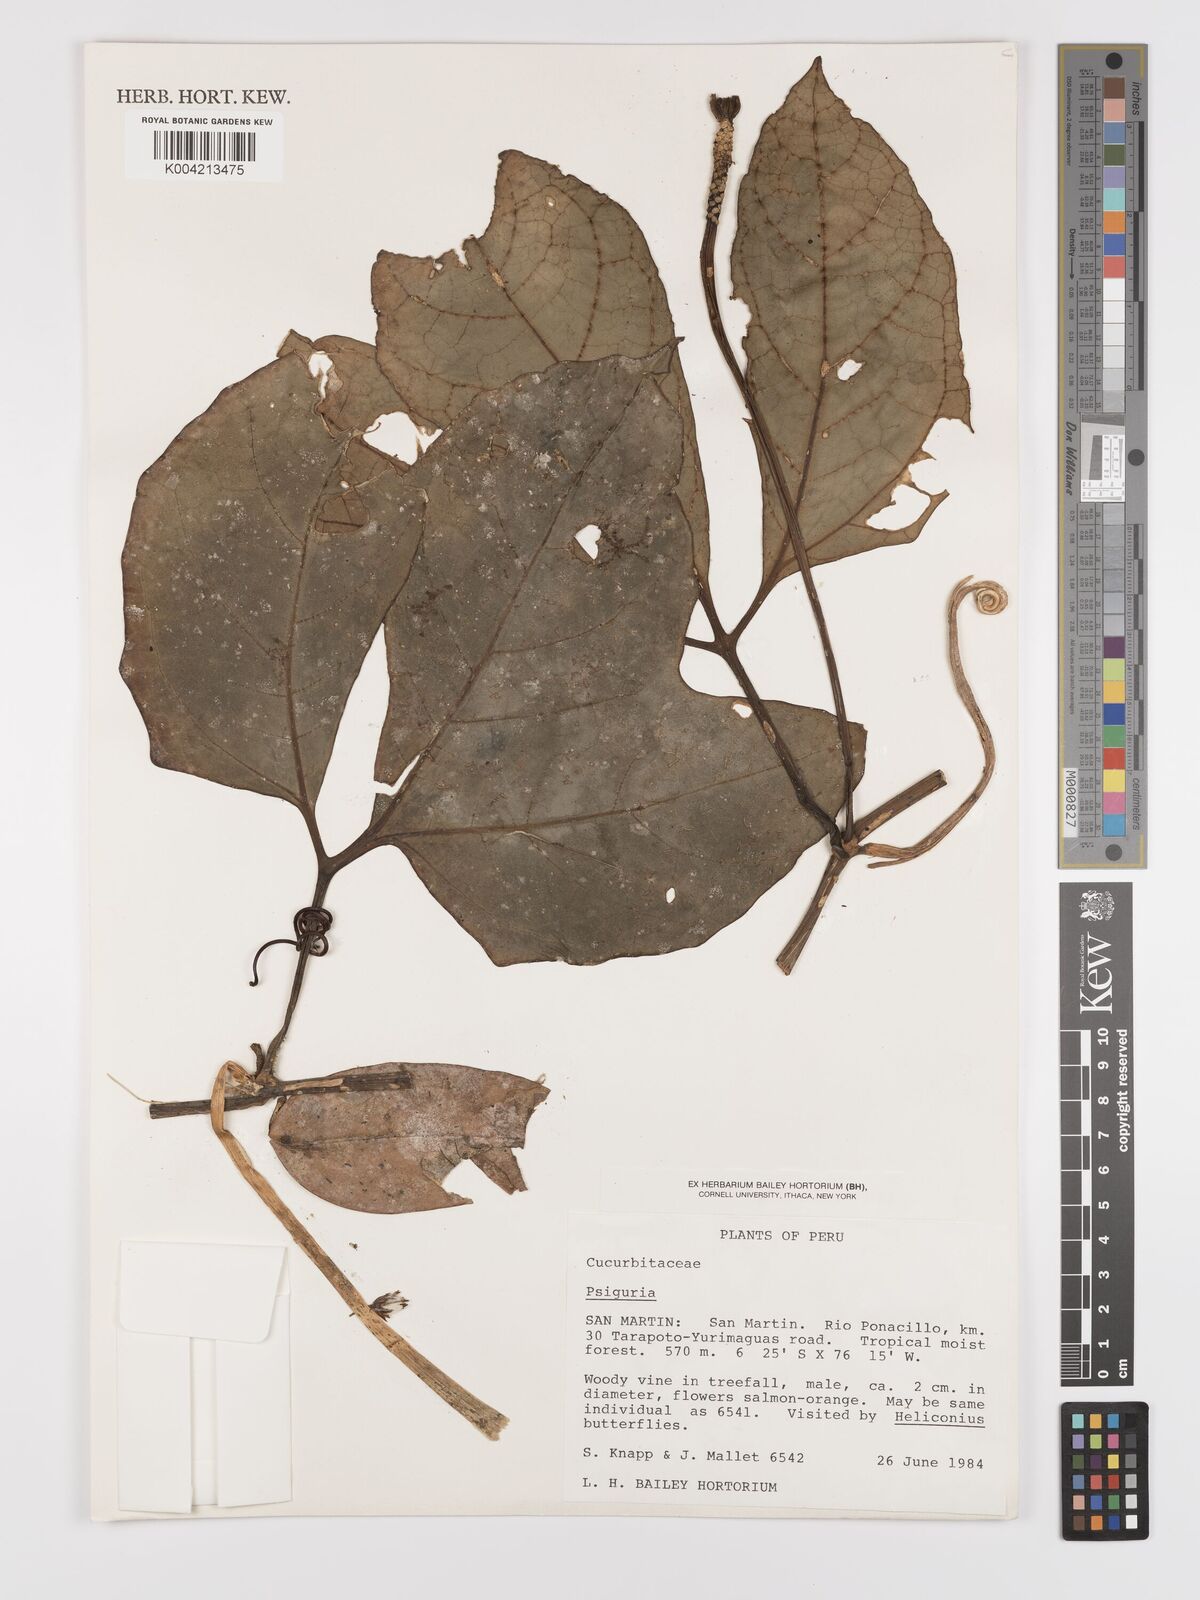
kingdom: Plantae
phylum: Tracheophyta
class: Magnoliopsida
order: Cucurbitales
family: Cucurbitaceae
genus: Psiguria
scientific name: Psiguria triphylla
